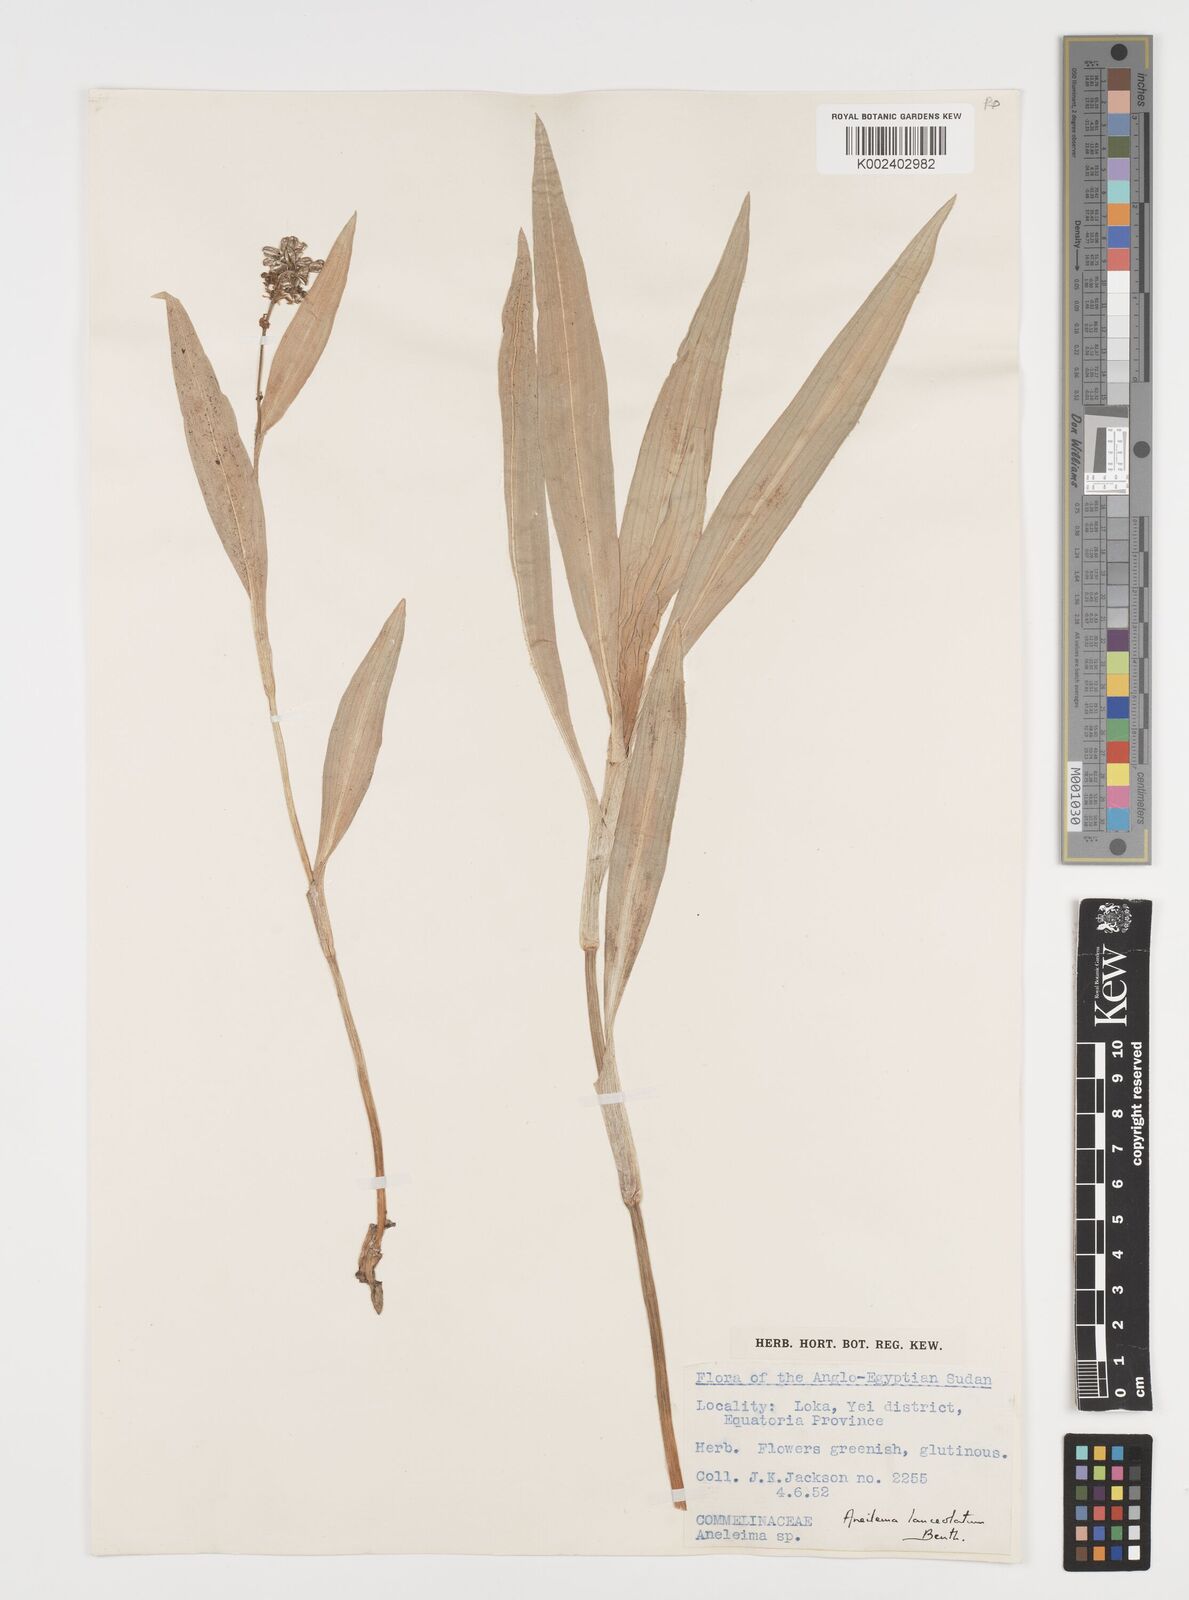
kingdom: Plantae
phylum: Tracheophyta
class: Liliopsida
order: Commelinales
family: Commelinaceae
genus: Aneilema
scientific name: Aneilema lanceolatum
